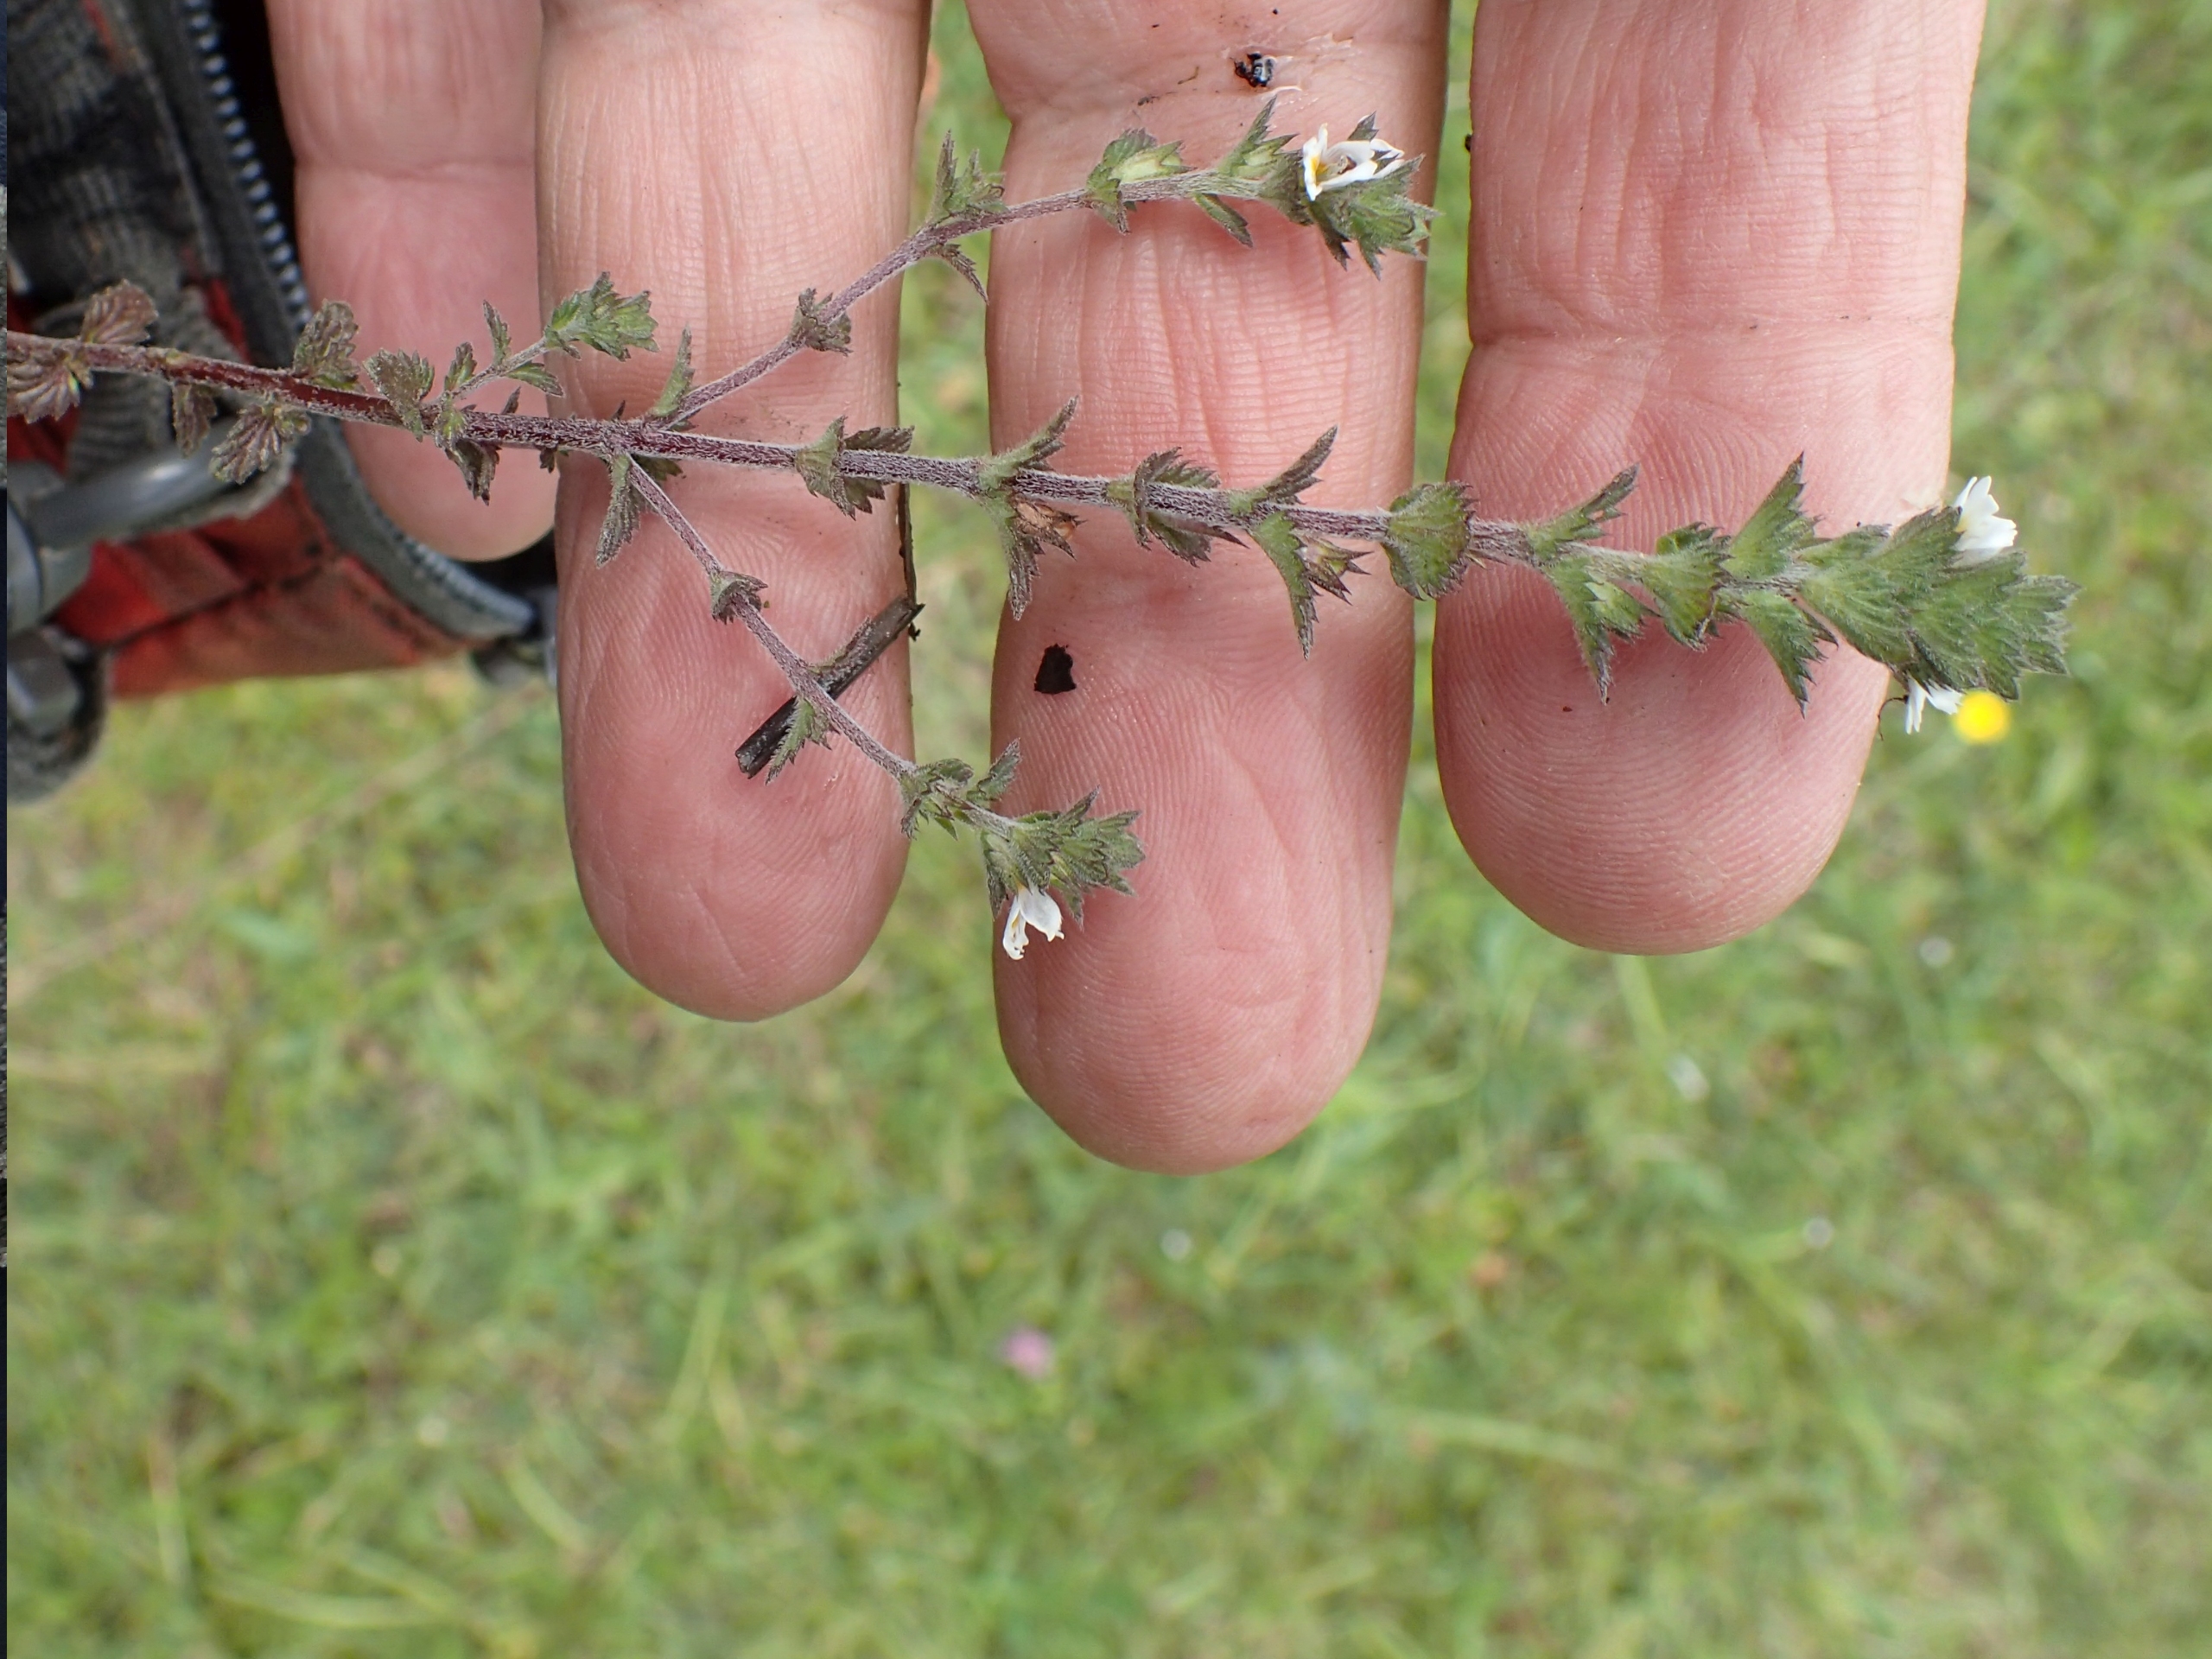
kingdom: Plantae
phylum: Tracheophyta
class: Magnoliopsida
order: Lamiales
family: Orobanchaceae
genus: Euphrasia
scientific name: Euphrasia nemorosa
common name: Kort øjentrøst
